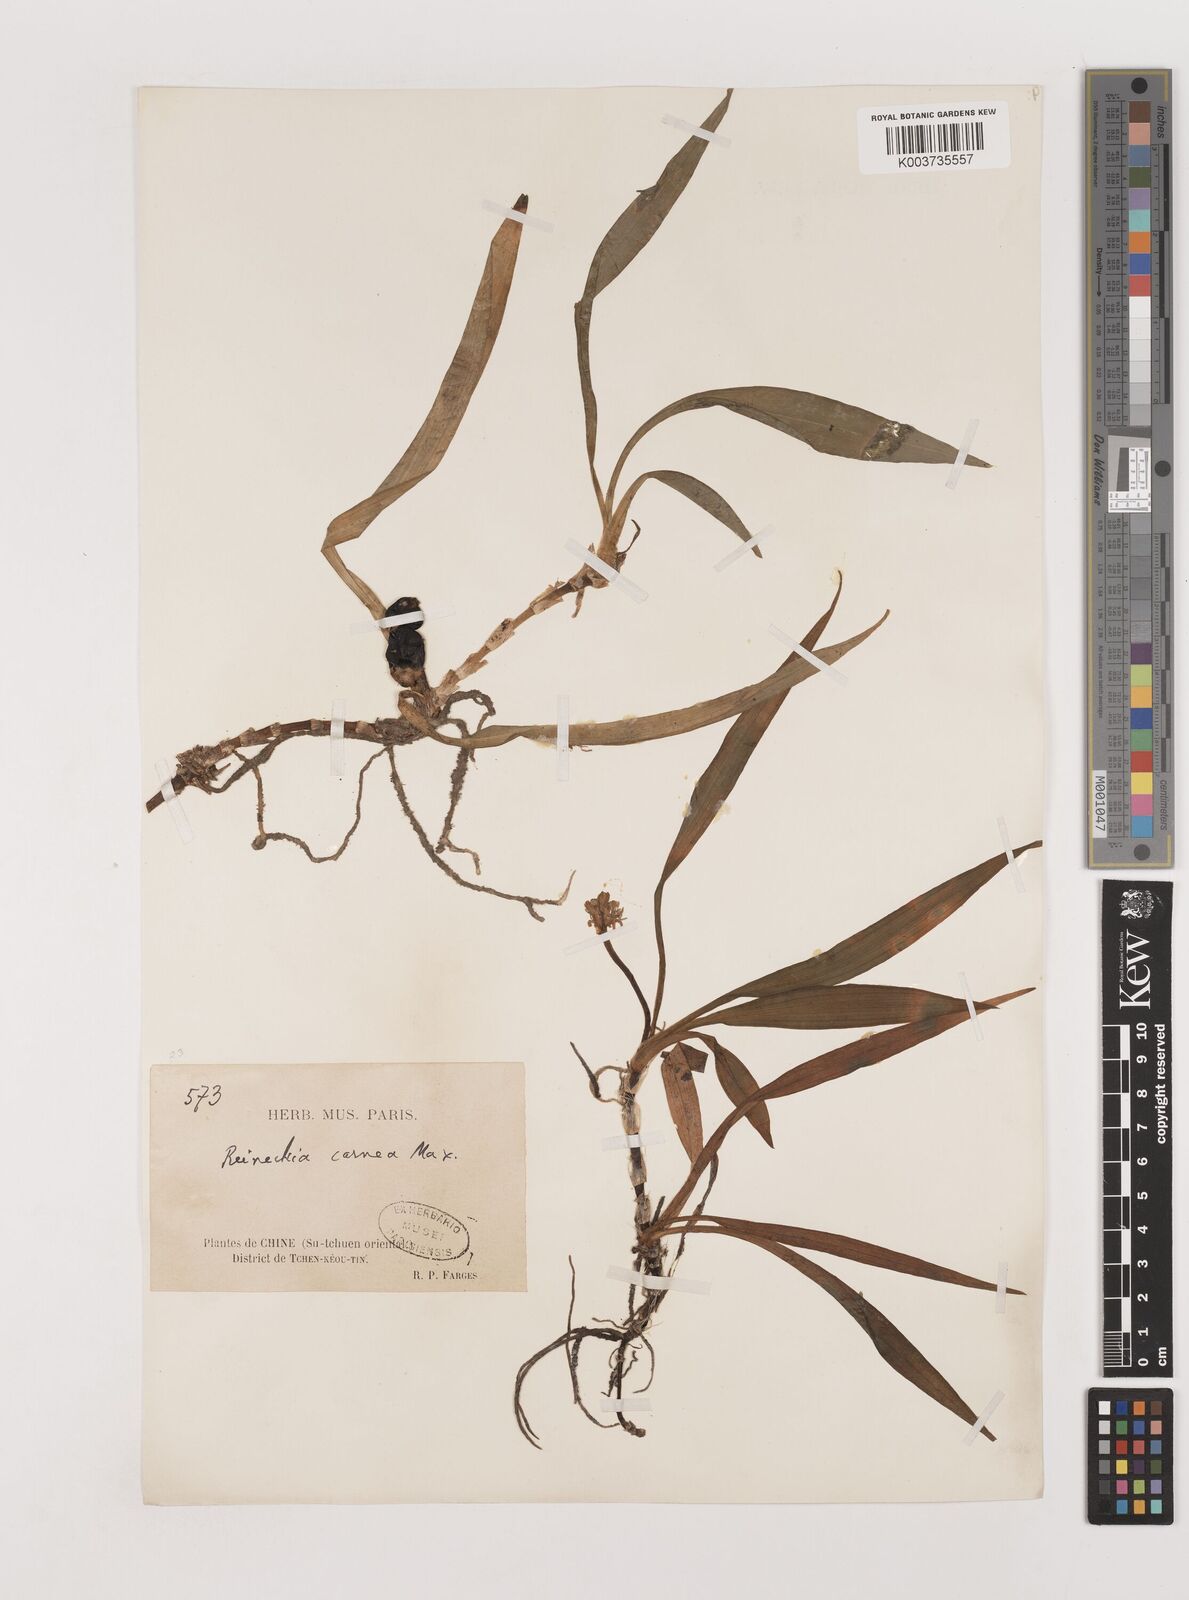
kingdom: Plantae
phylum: Tracheophyta
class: Liliopsida
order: Asparagales
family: Asparagaceae
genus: Reineckea
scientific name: Reineckea carnea
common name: Reineckea
